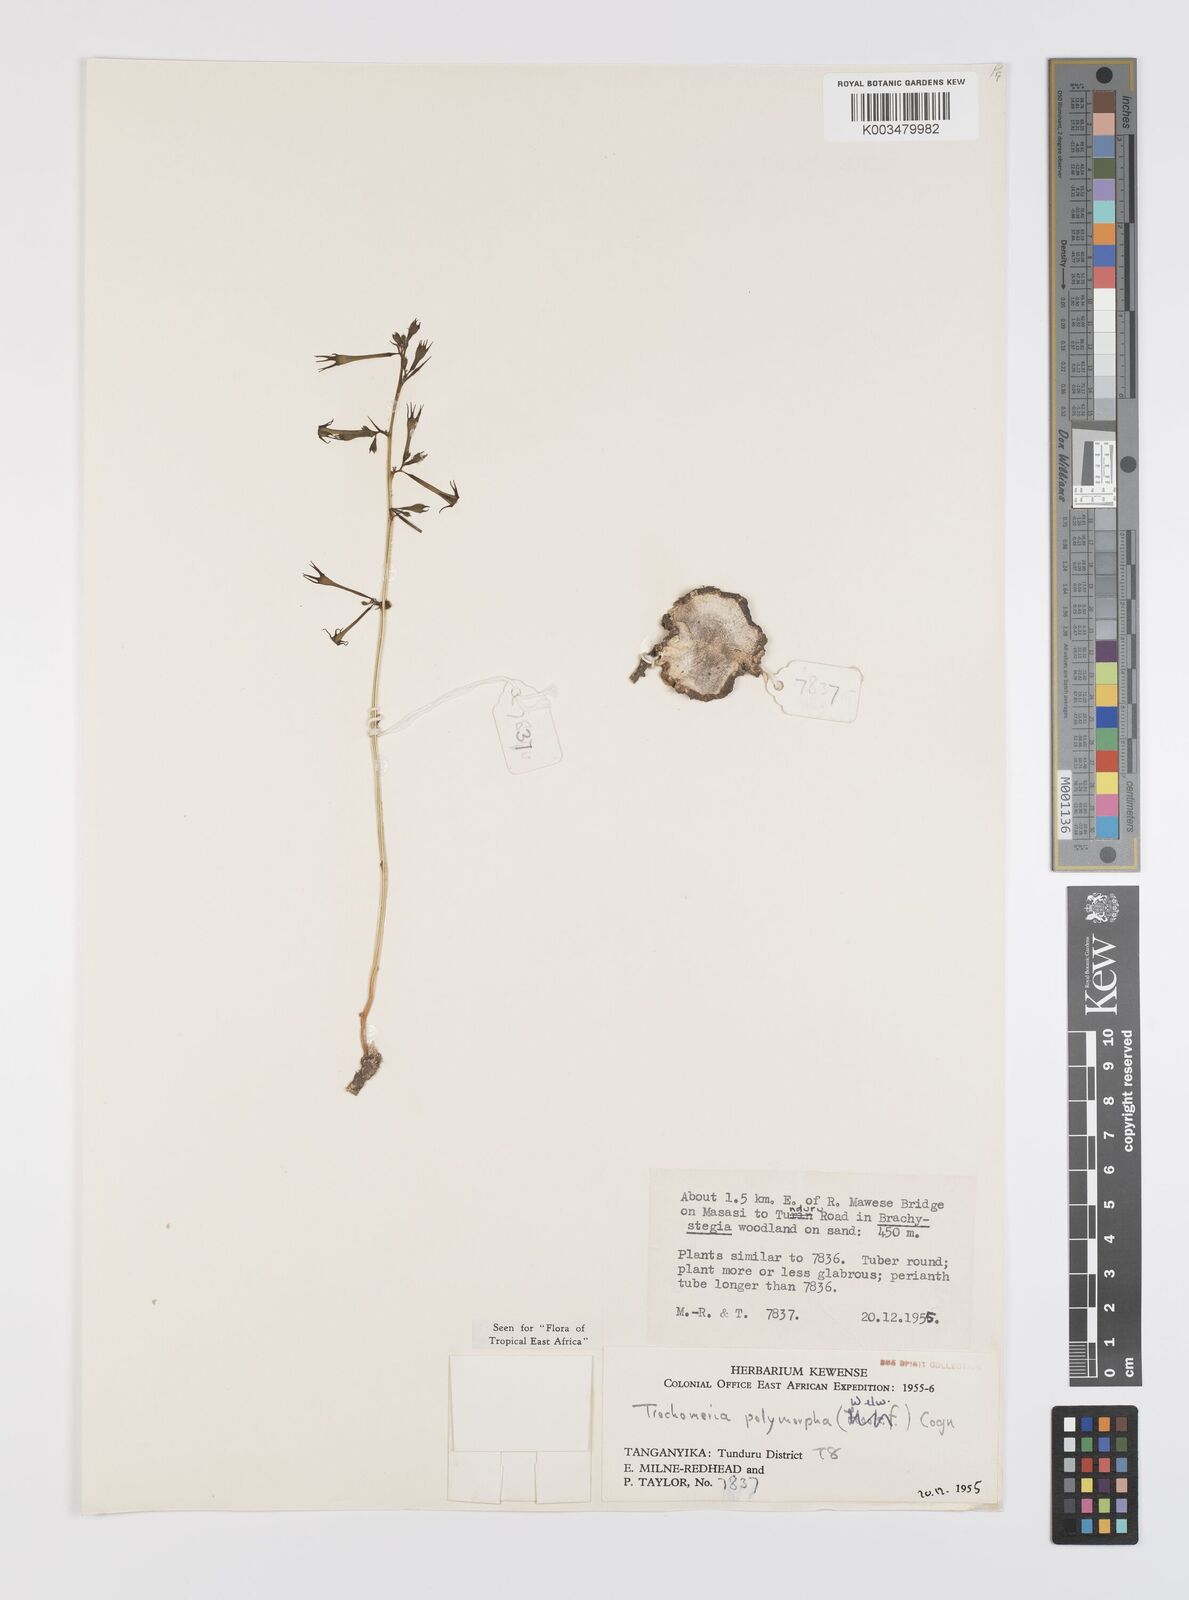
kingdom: Plantae
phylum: Tracheophyta
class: Magnoliopsida
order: Cucurbitales
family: Cucurbitaceae
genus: Trochomeria
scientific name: Trochomeria polymorpha
